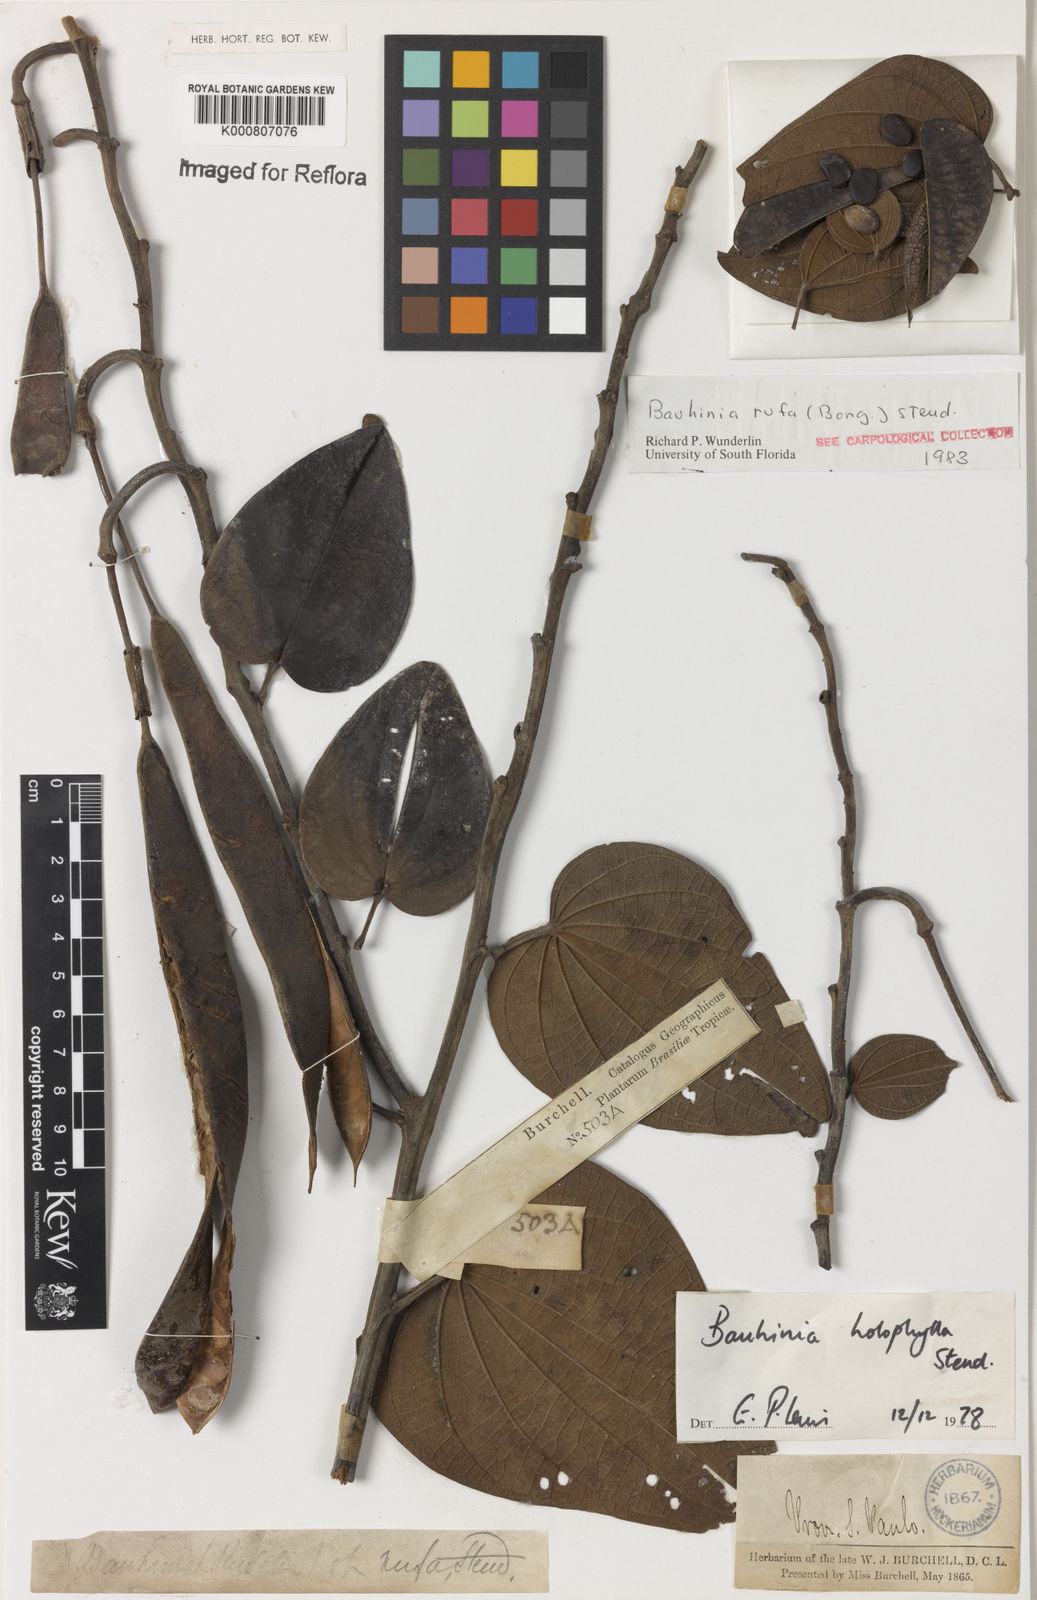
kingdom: Plantae
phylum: Tracheophyta
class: Magnoliopsida
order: Fabales
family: Fabaceae
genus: Bauhinia
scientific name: Bauhinia rufa
